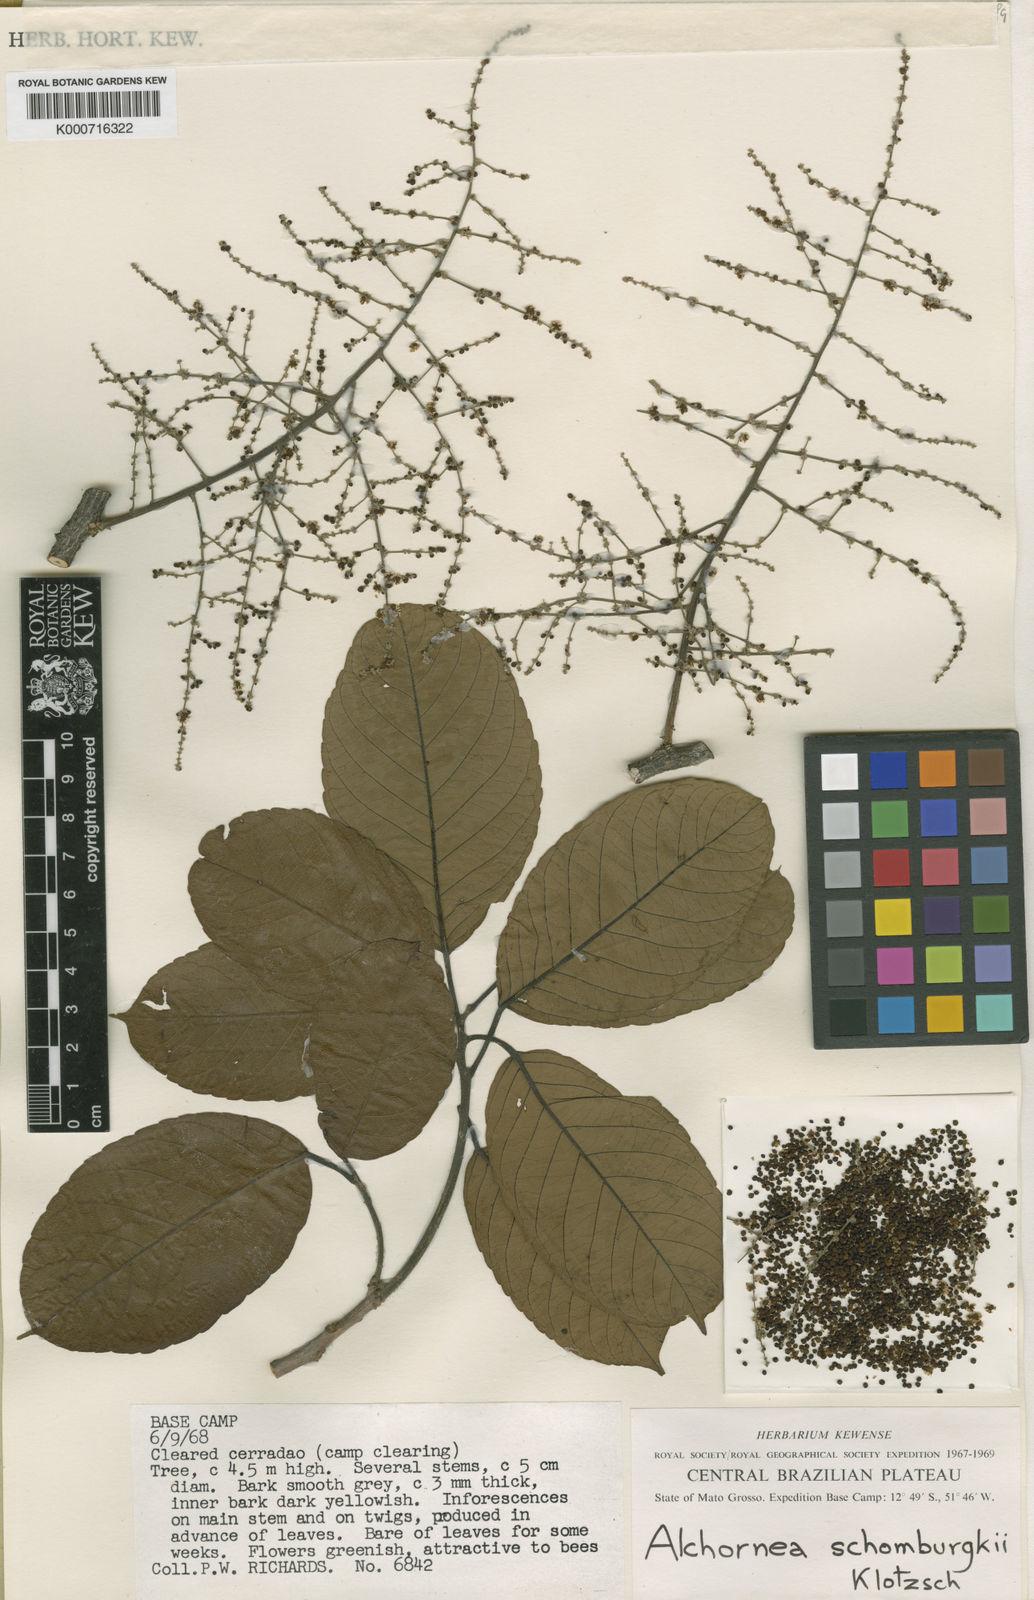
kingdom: Plantae
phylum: Tracheophyta
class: Magnoliopsida
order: Malpighiales
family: Euphorbiaceae
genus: Alchornea
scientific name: Alchornea discolor
